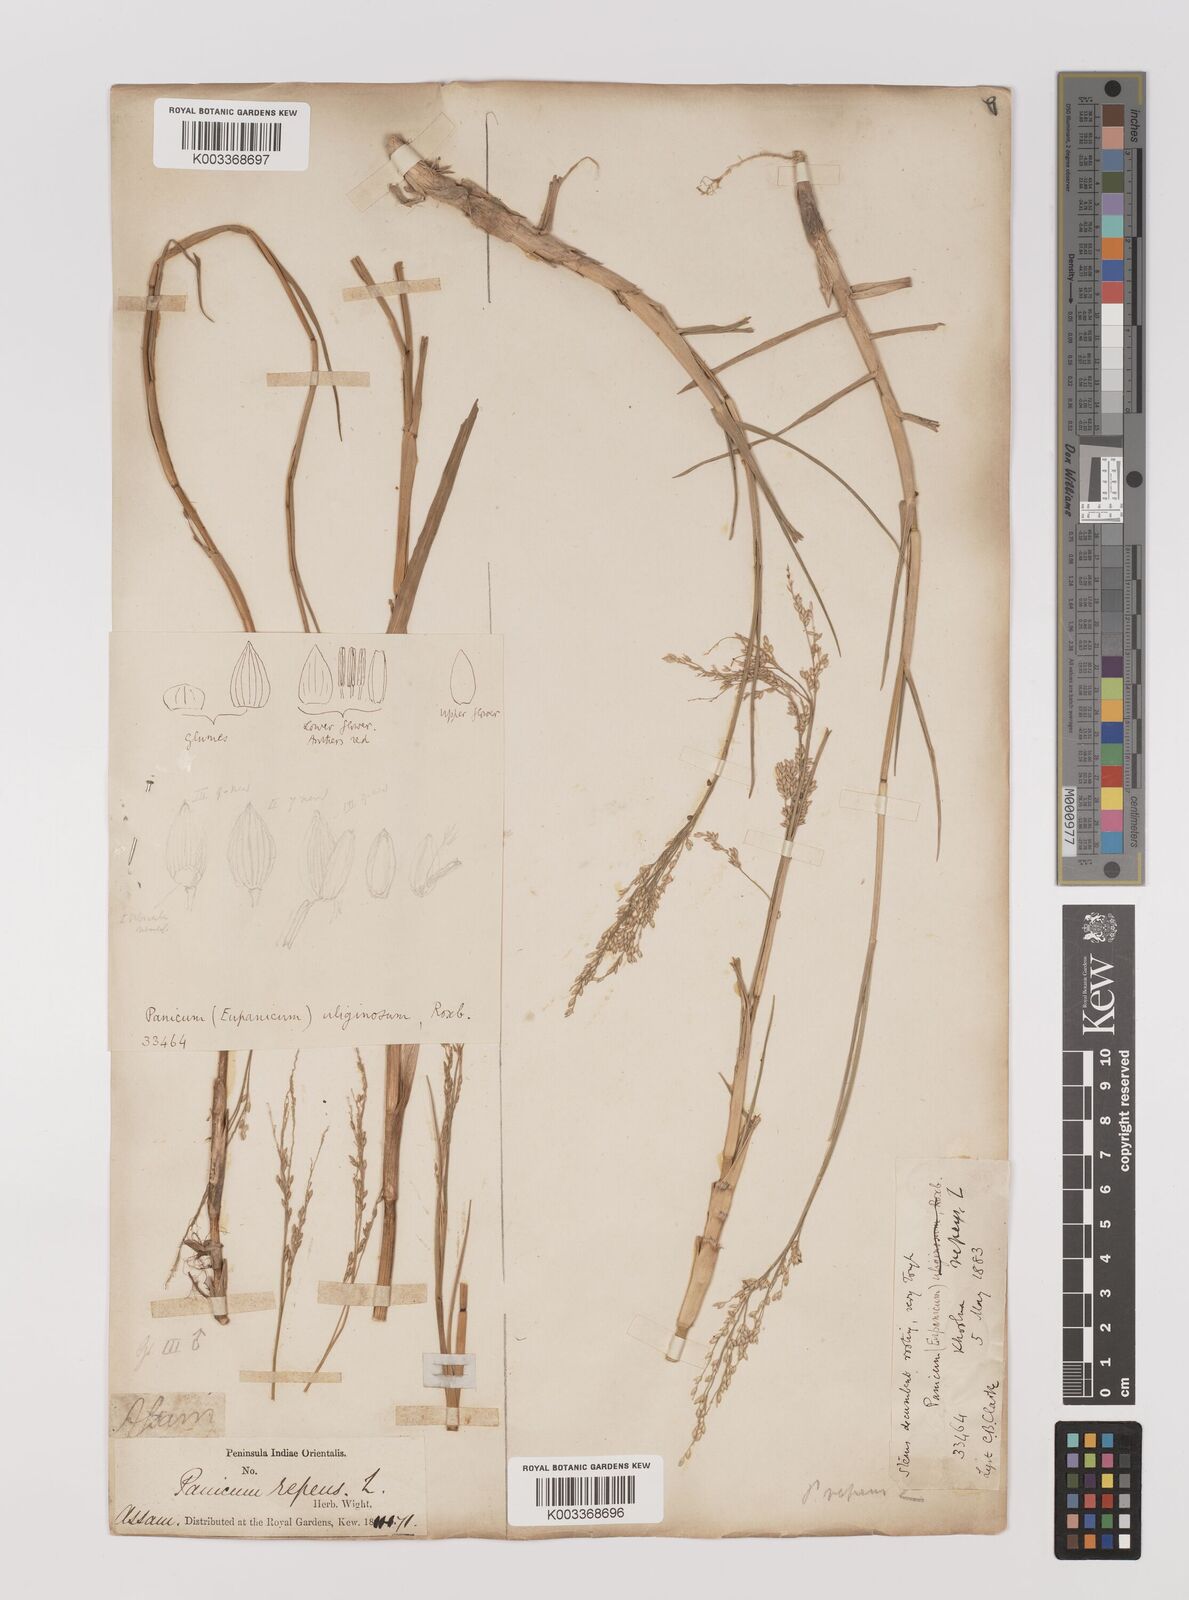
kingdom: Plantae
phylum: Tracheophyta
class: Liliopsida
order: Poales
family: Poaceae
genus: Panicum
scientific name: Panicum repens
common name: Torpedo grass
